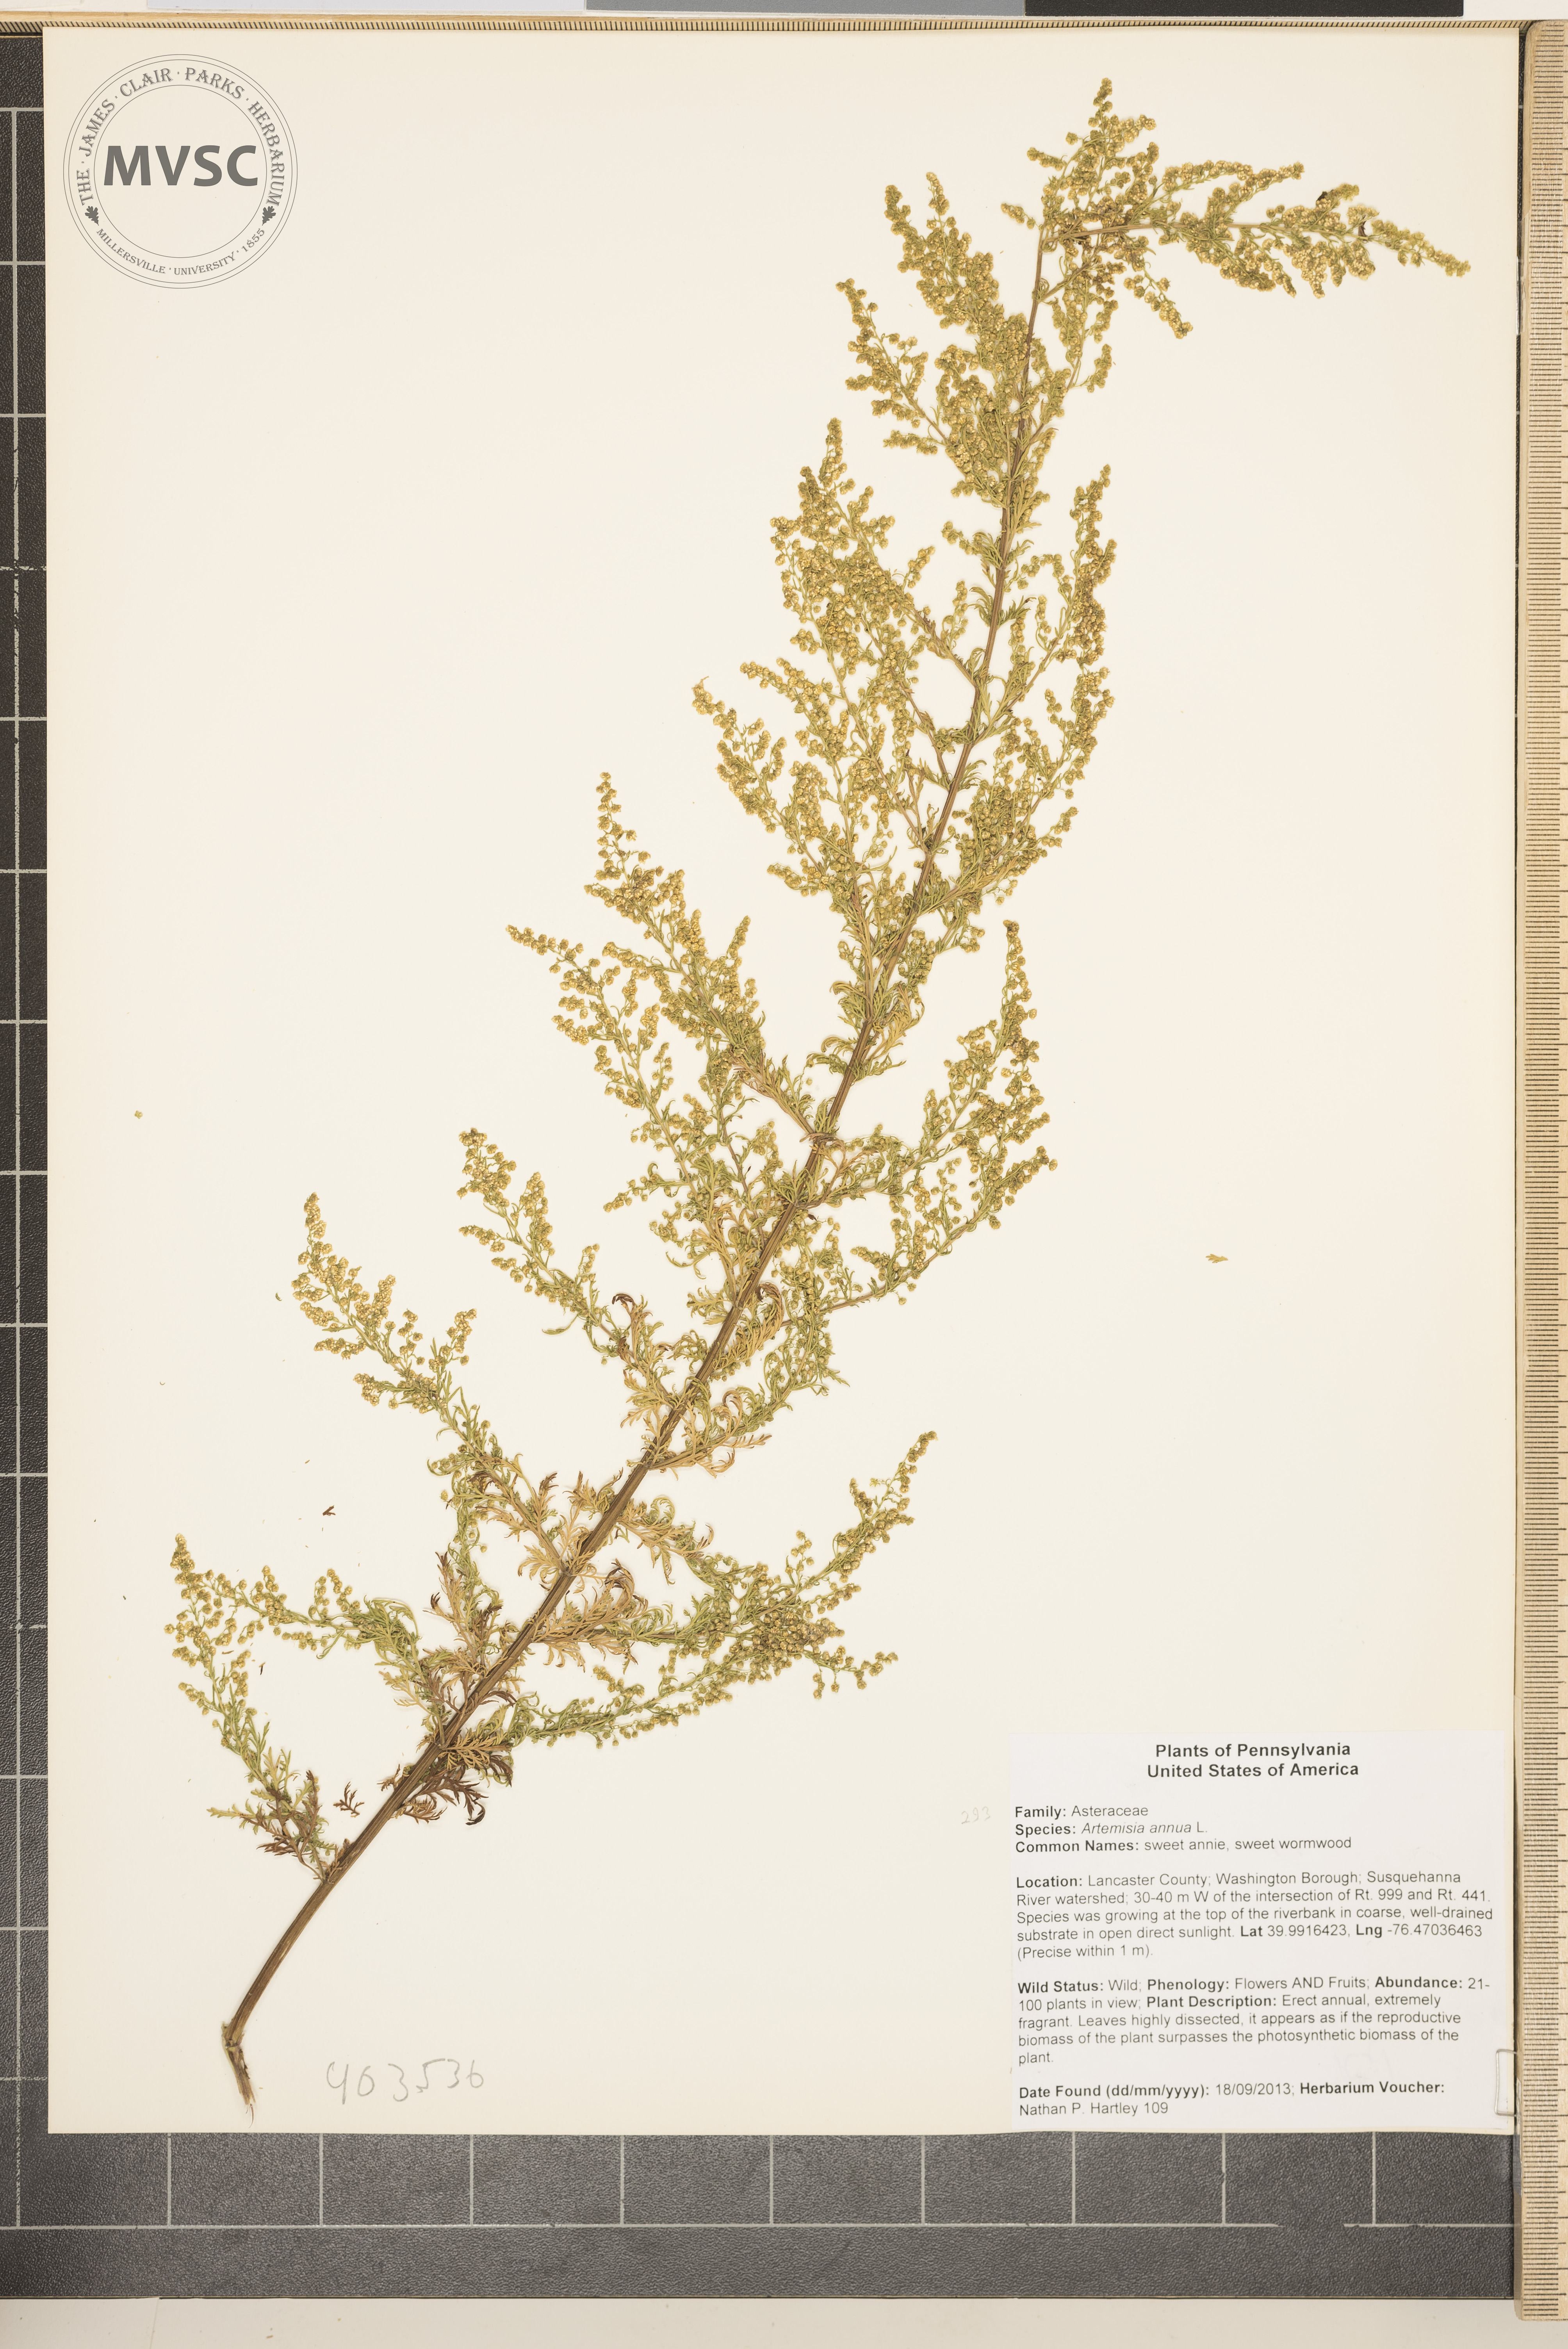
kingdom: Plantae
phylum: Tracheophyta
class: Magnoliopsida
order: Asterales
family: Asteraceae
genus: Artemisia
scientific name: Artemisia annua
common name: sweet wormwood
